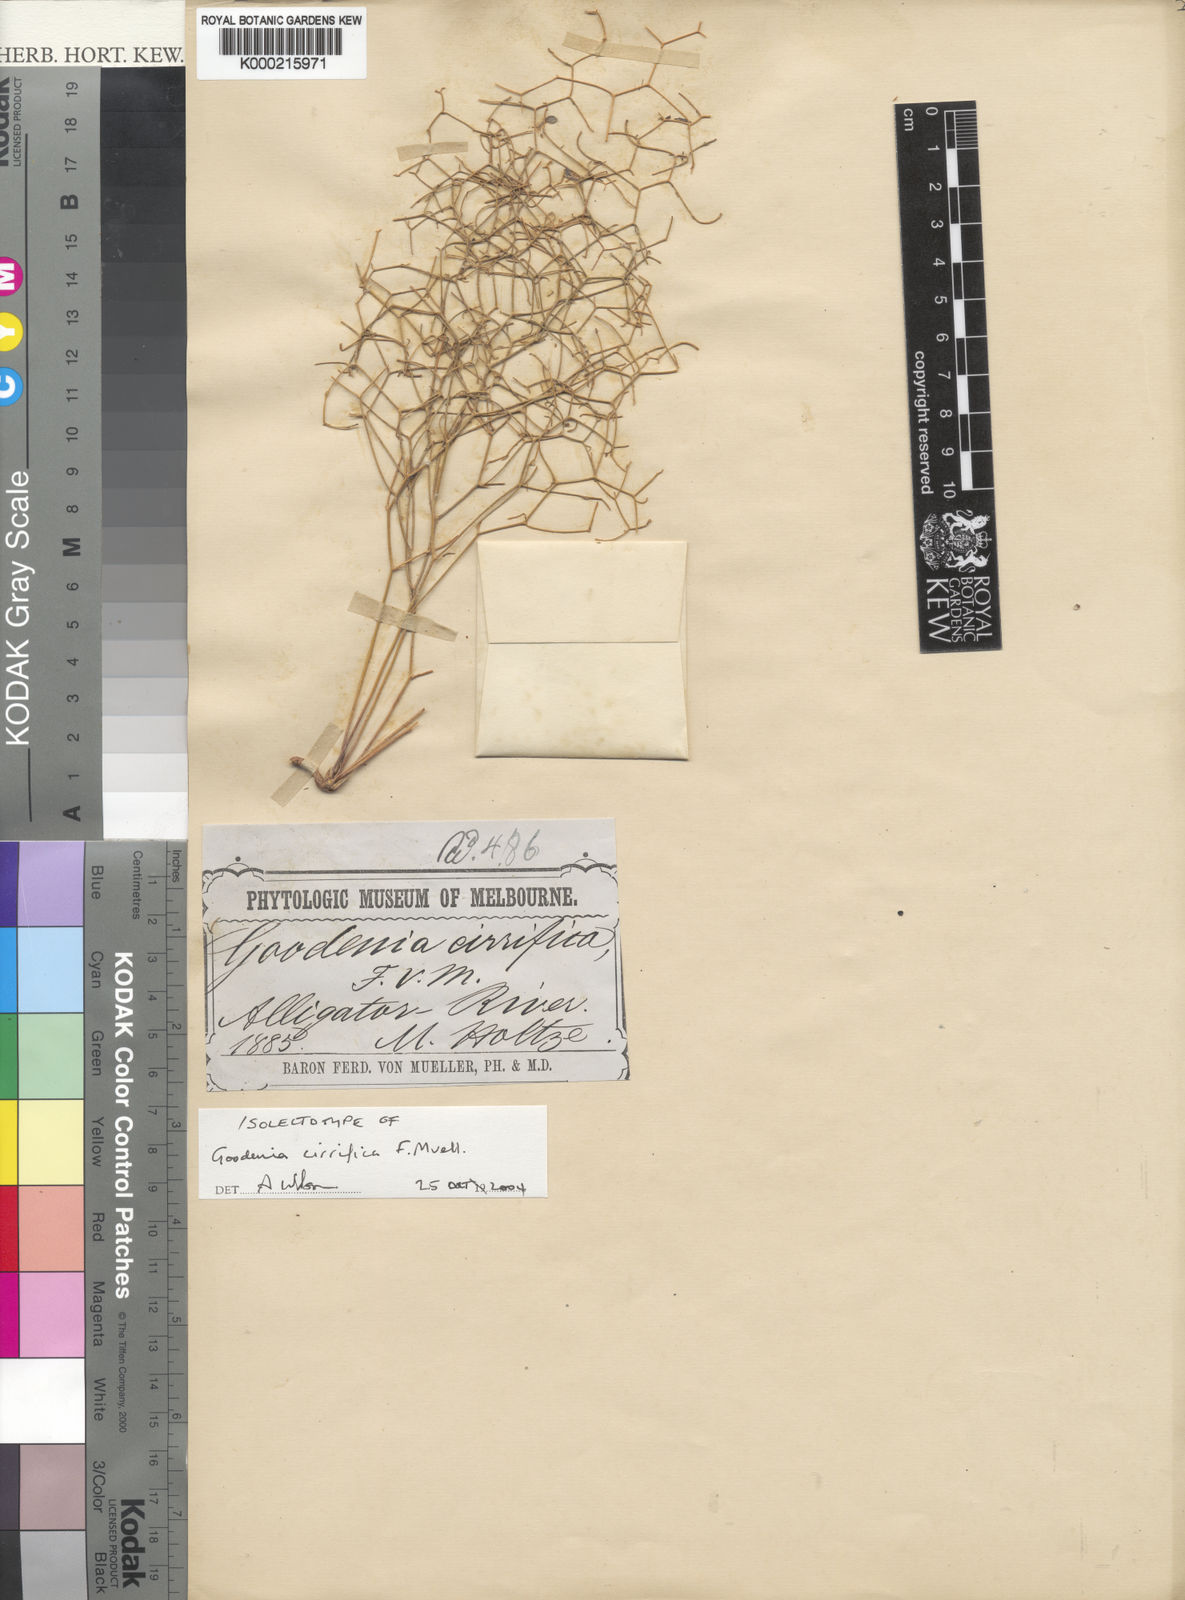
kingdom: Plantae
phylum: Tracheophyta
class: Magnoliopsida
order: Asterales
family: Goodeniaceae
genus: Goodenia
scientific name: Goodenia cirrifica
